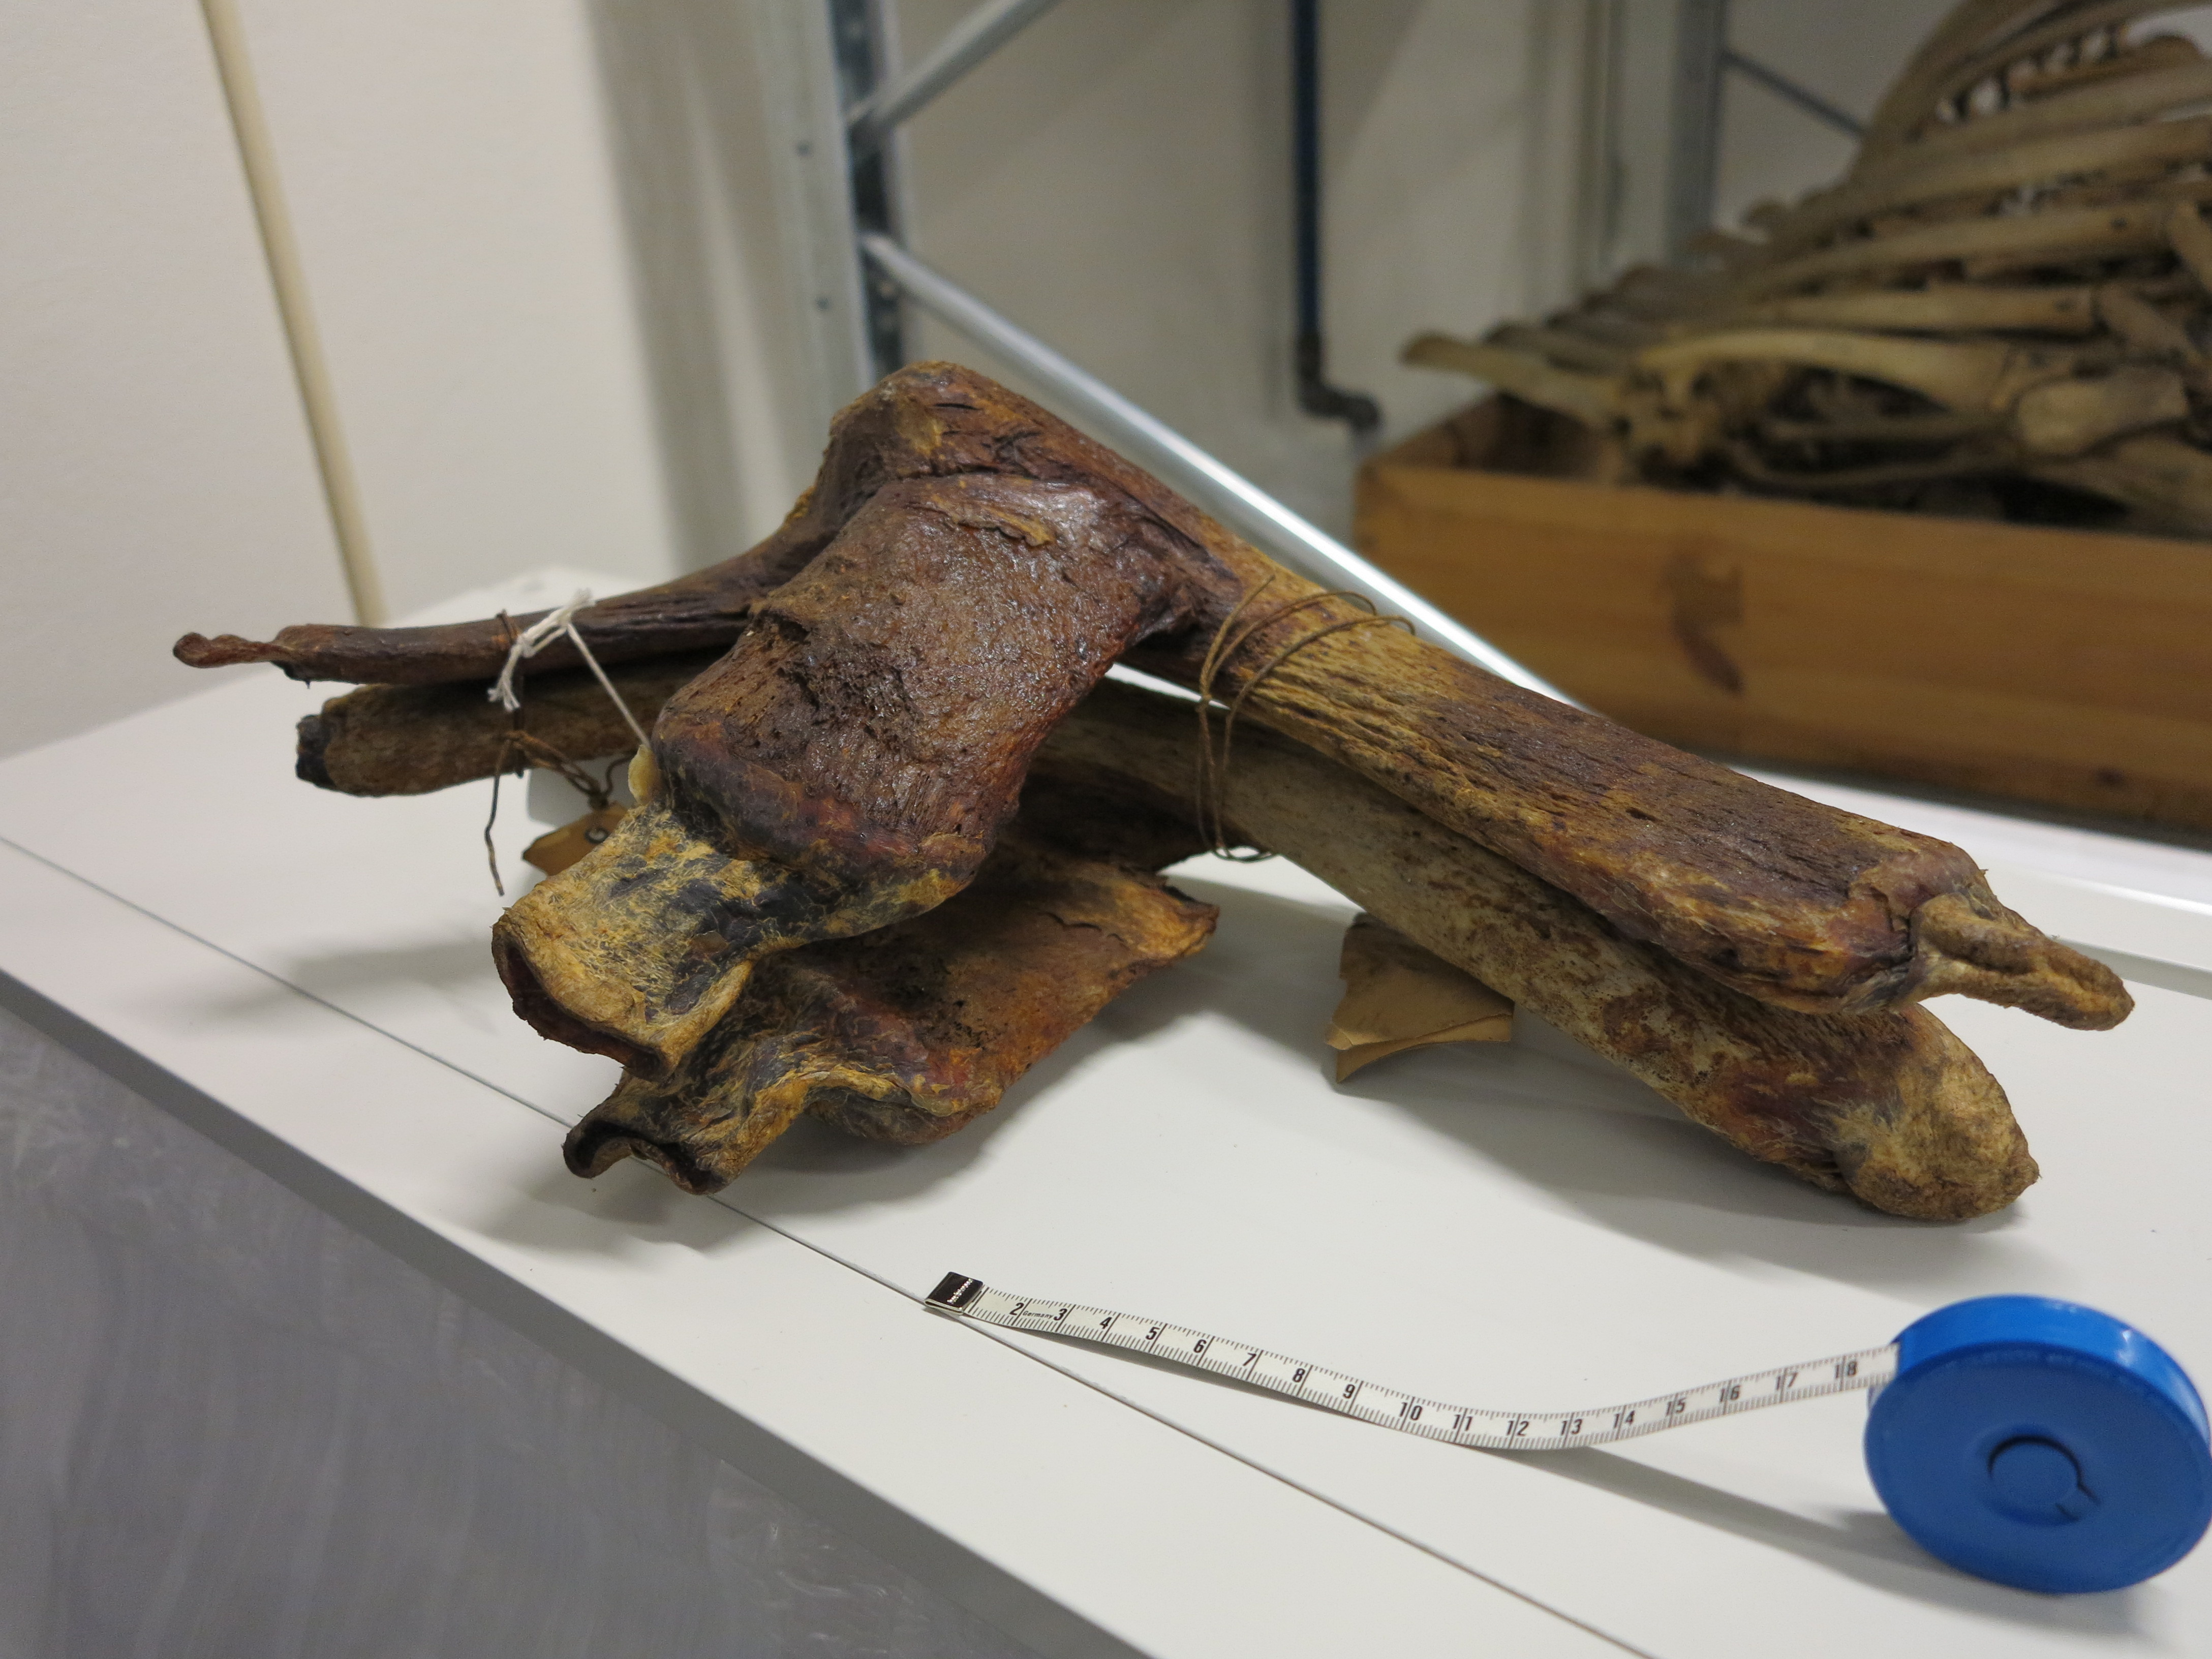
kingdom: Animalia
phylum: Chordata
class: Mammalia
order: Cetacea
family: Balaenidae
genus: Eubalaena
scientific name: Eubalaena glacialis
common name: North atlantic right whale
